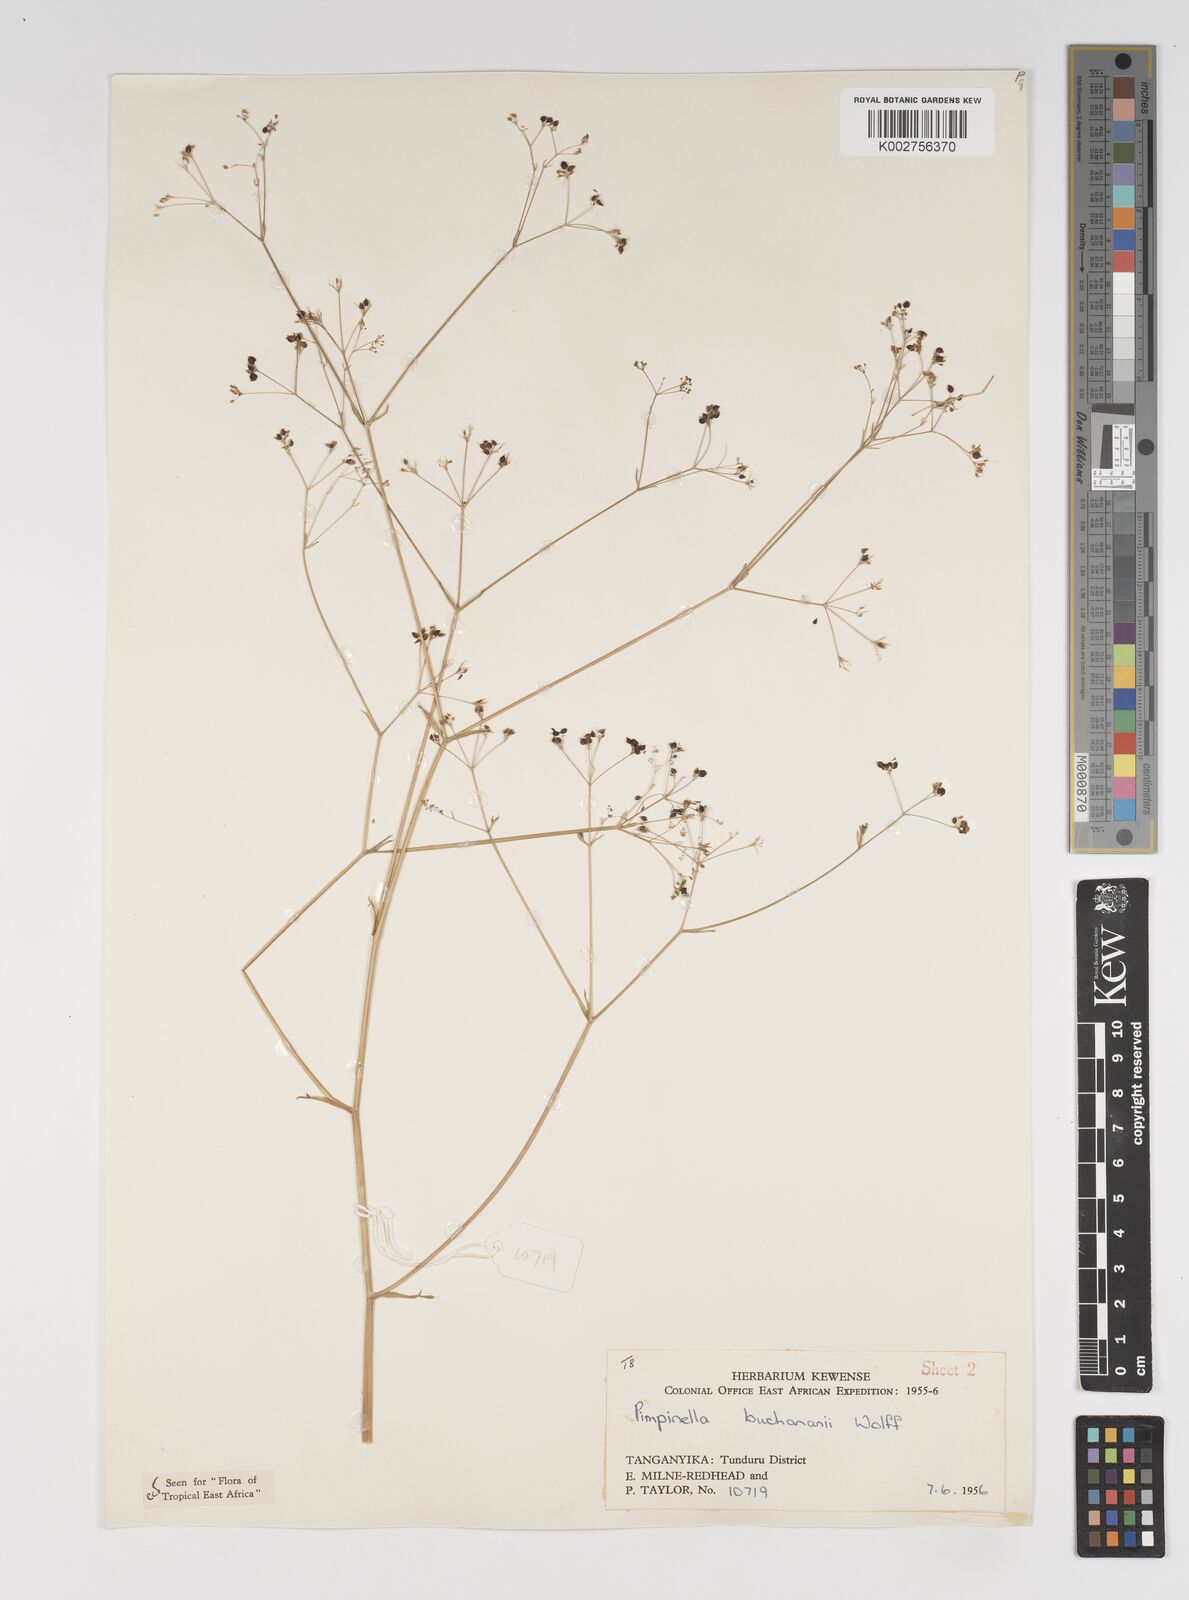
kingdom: Plantae
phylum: Tracheophyta
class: Magnoliopsida
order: Apiales
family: Apiaceae
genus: Pimpinella
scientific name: Pimpinella buchananii
